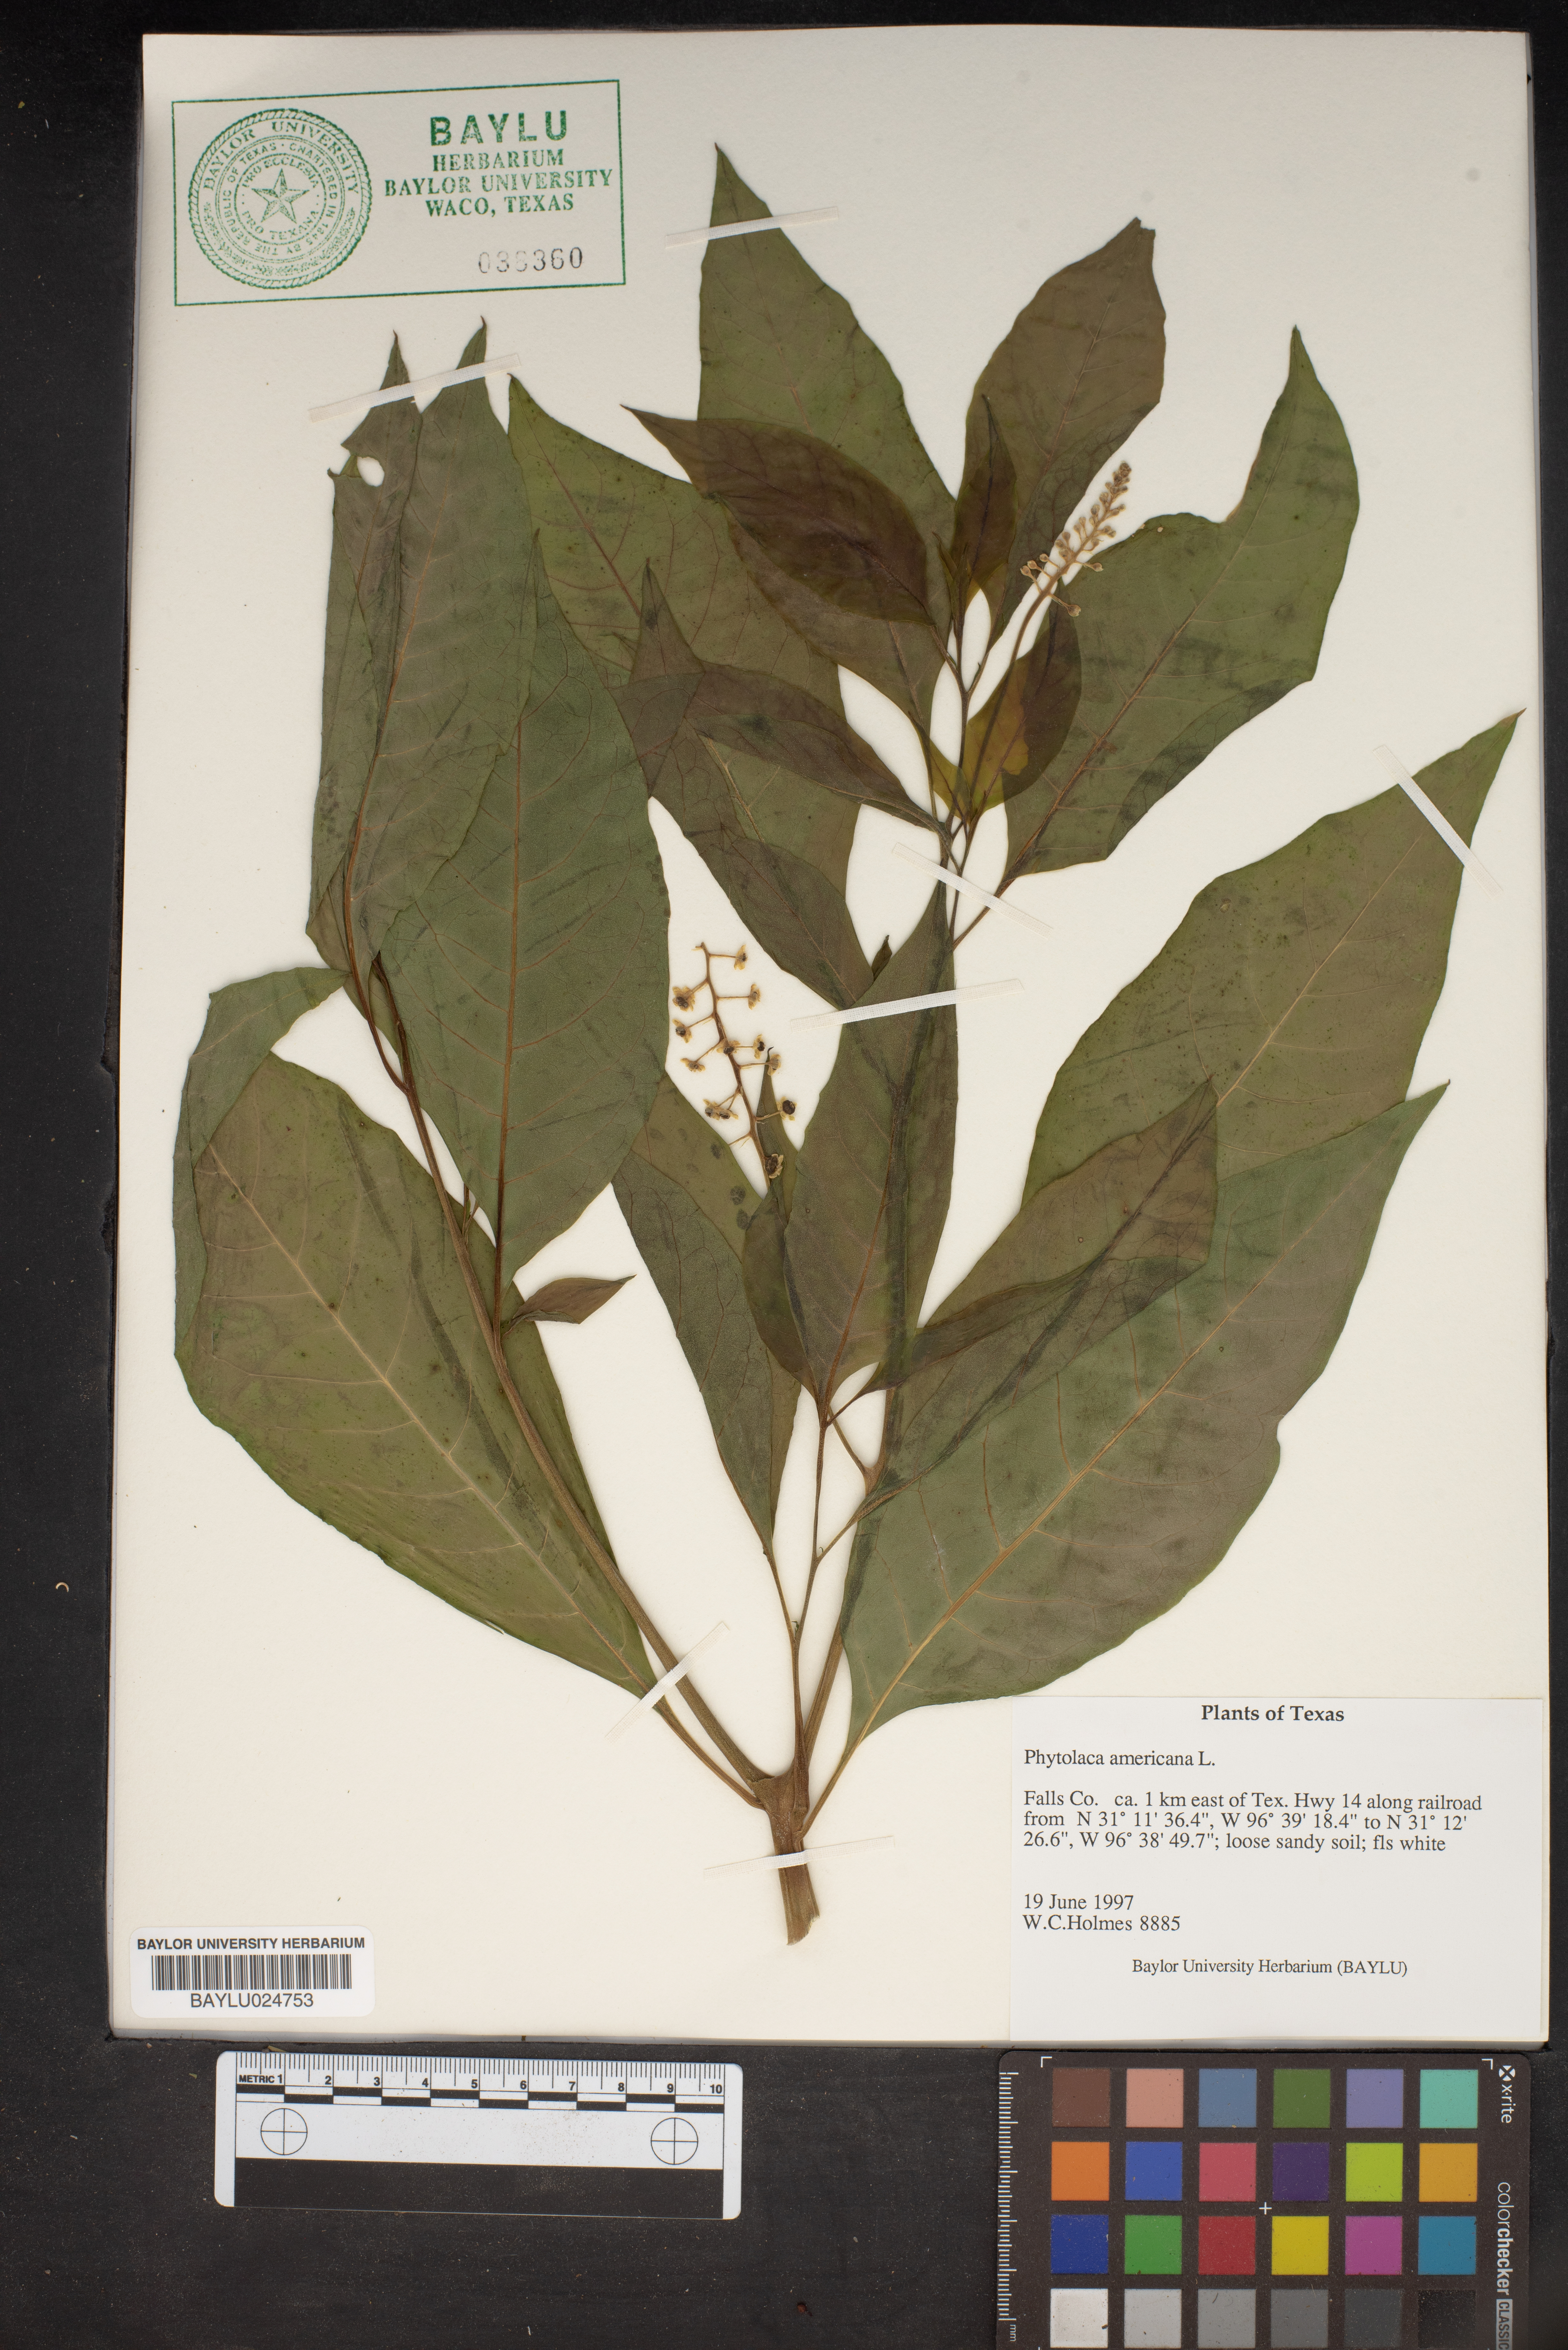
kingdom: Plantae
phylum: Tracheophyta
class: Magnoliopsida
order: Caryophyllales
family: Phytolaccaceae
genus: Phytolacca
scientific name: Phytolacca americana
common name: American pokeweed
